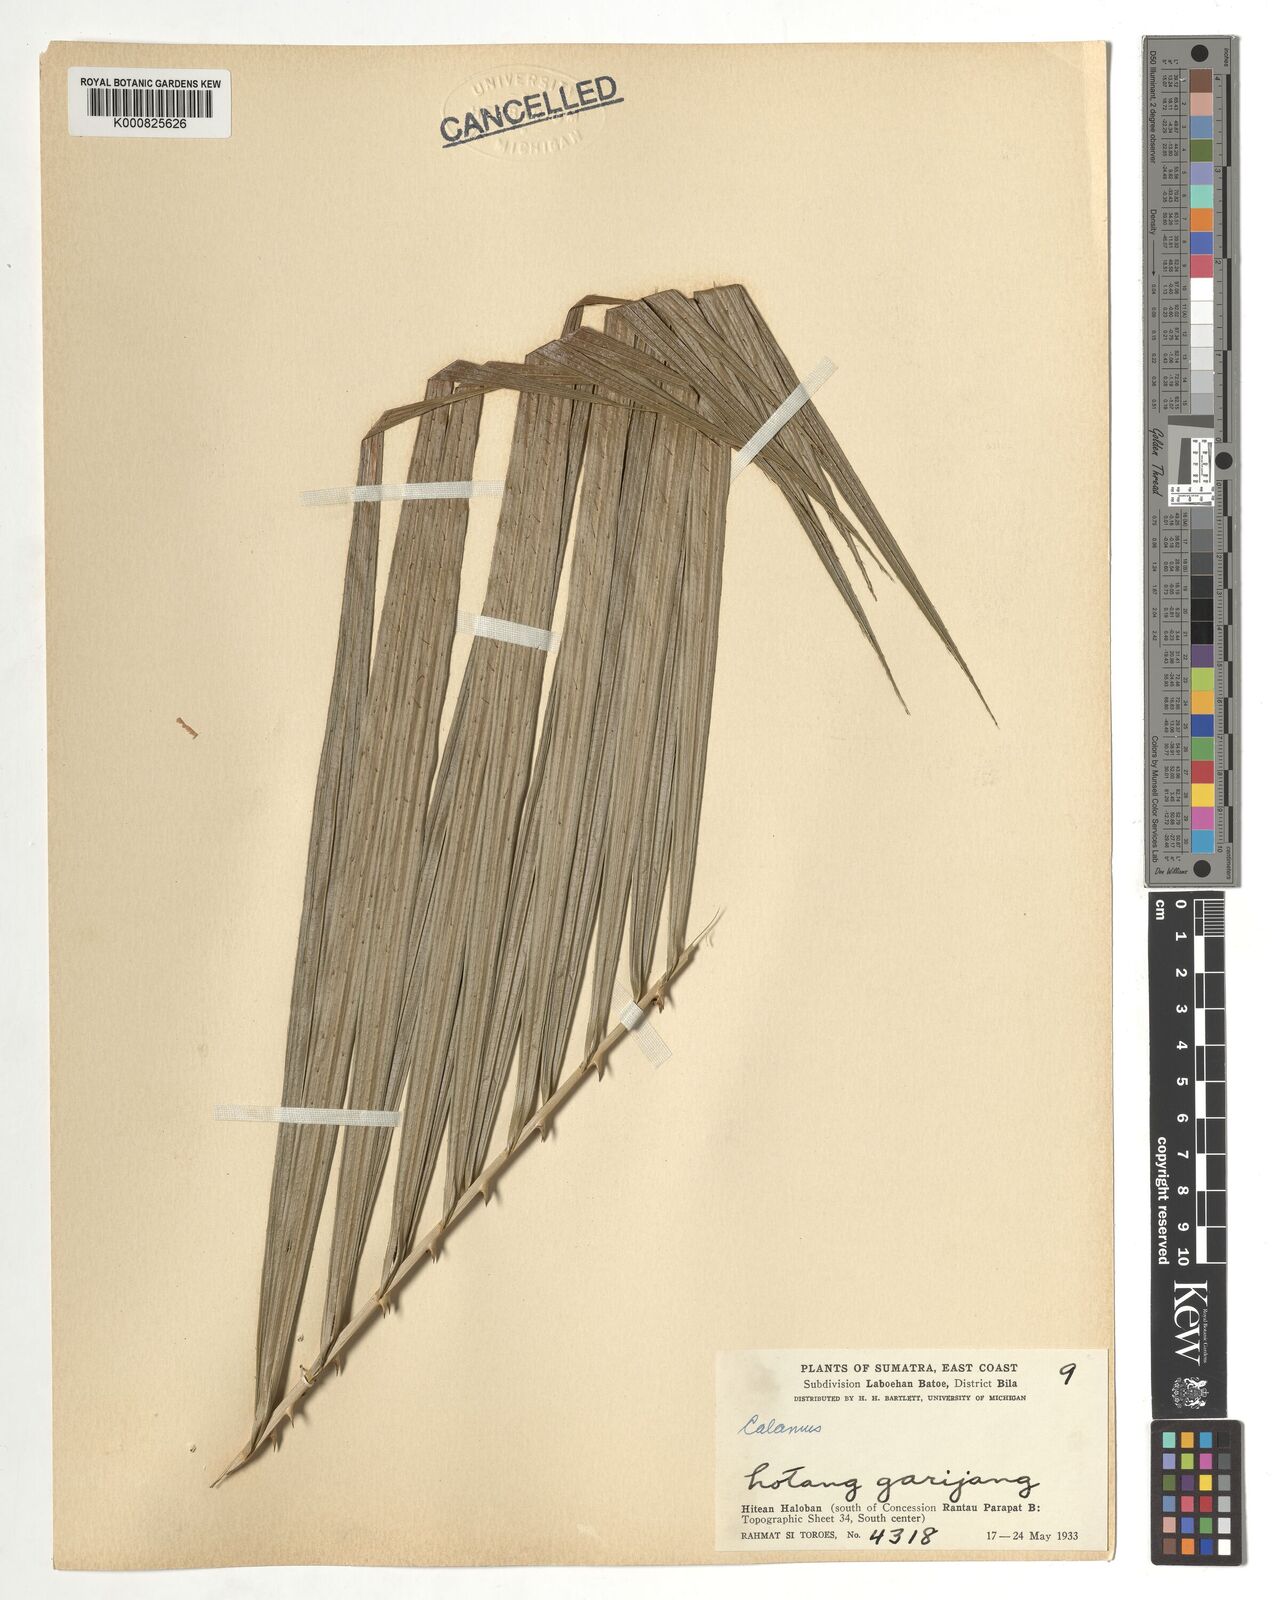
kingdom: Plantae
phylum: Tracheophyta
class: Liliopsida
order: Arecales
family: Arecaceae
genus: Calamus
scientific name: Calamus
